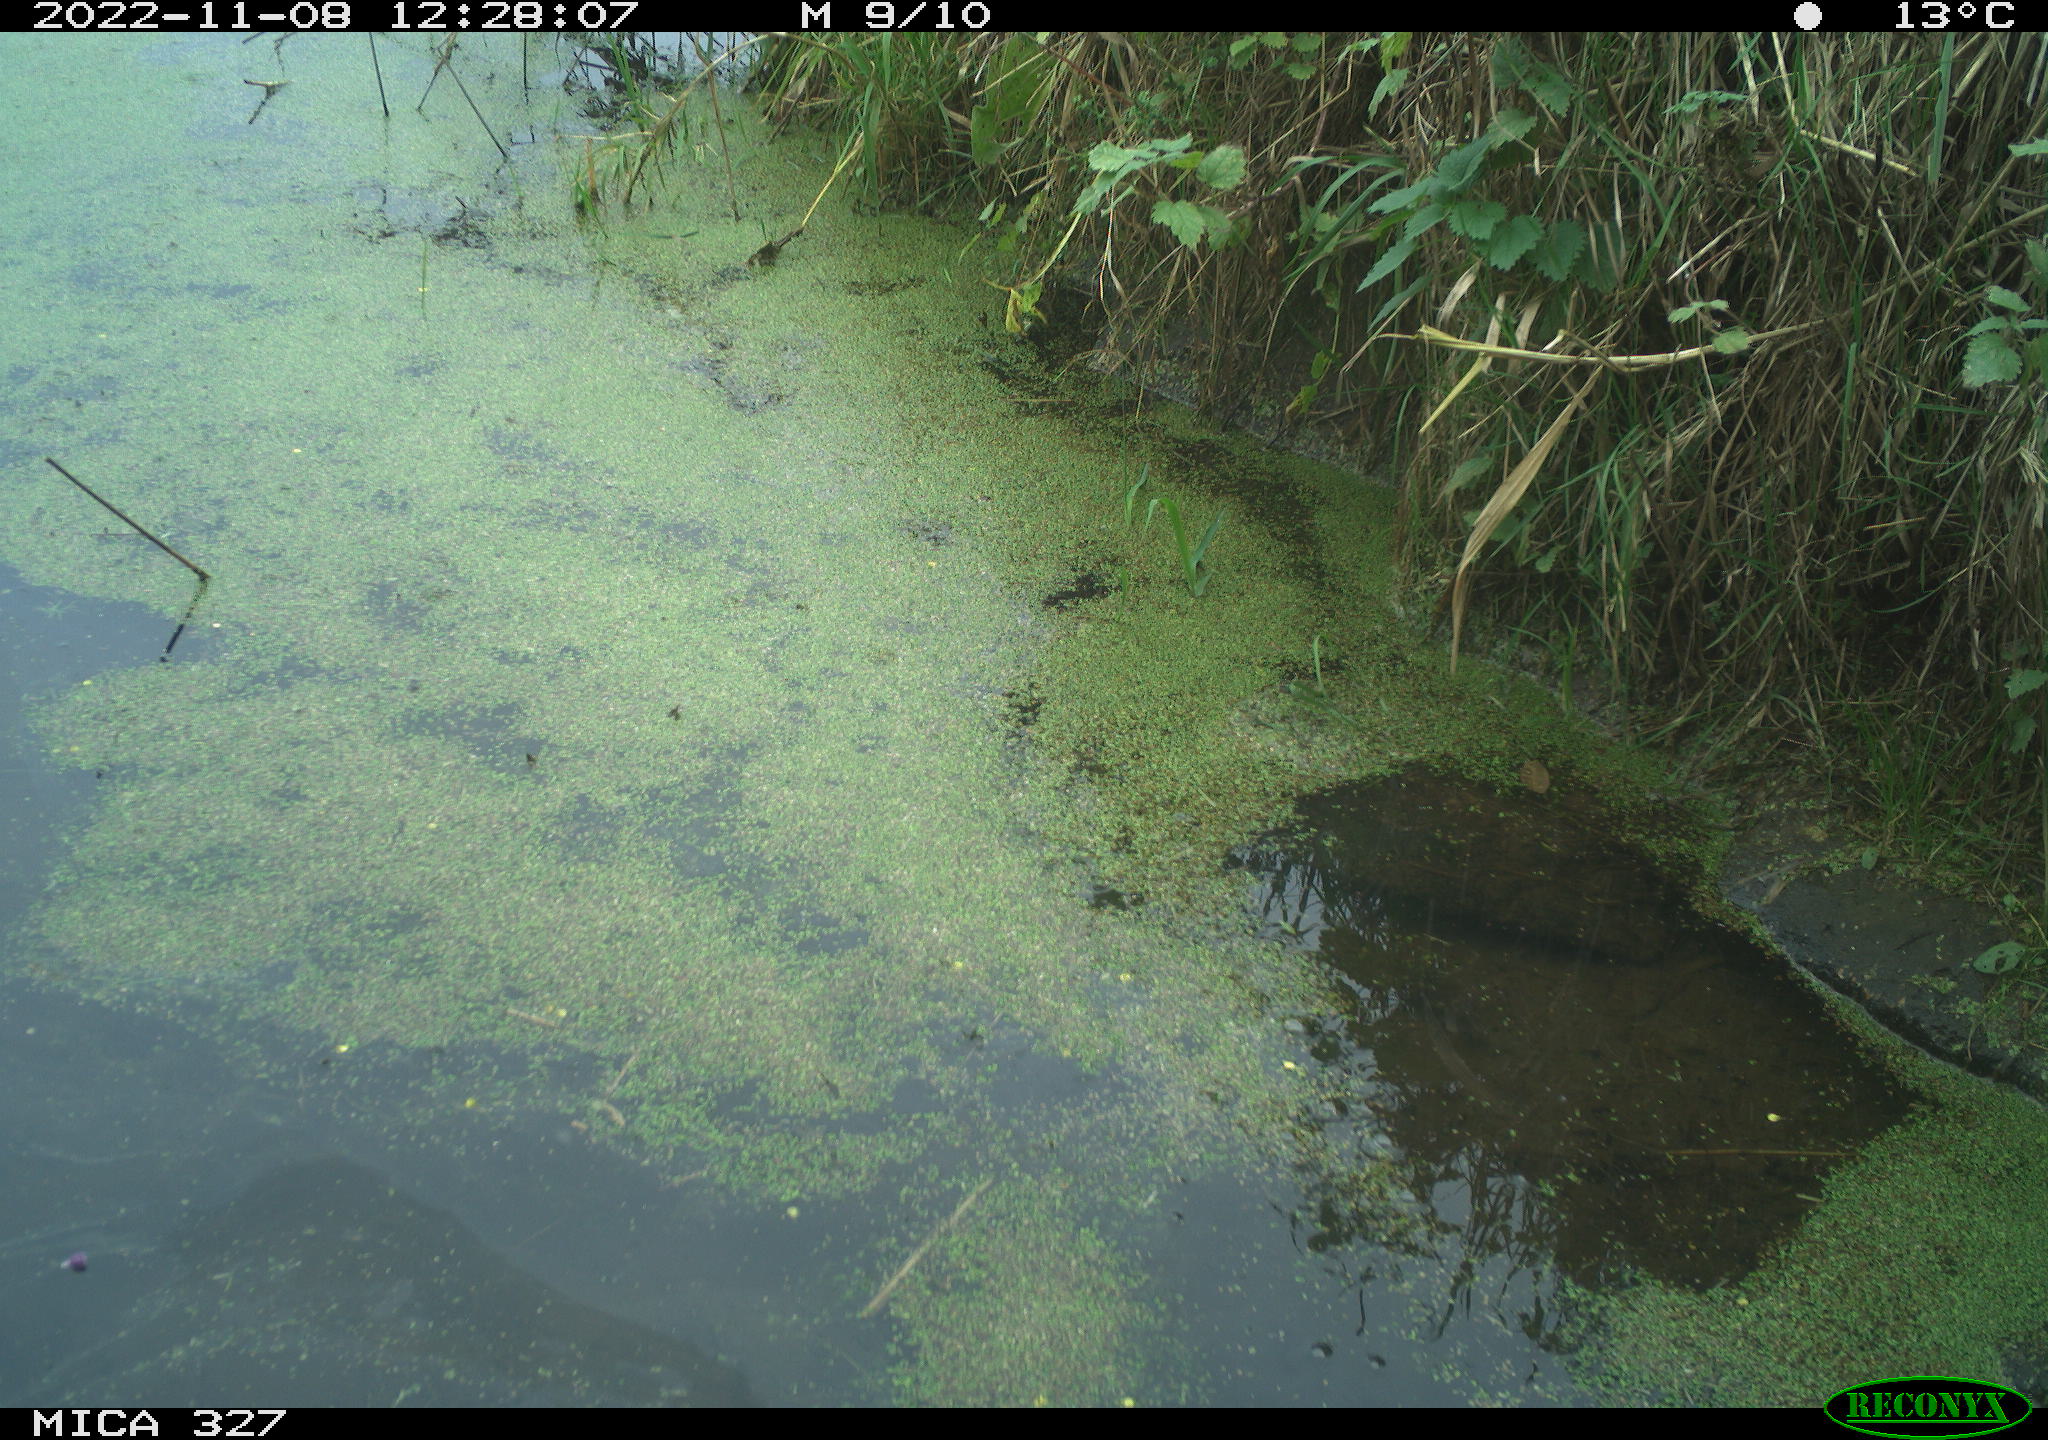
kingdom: Animalia
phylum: Chordata
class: Aves
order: Pelecaniformes
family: Ardeidae
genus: Ardea
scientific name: Ardea cinerea
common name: Grey heron
